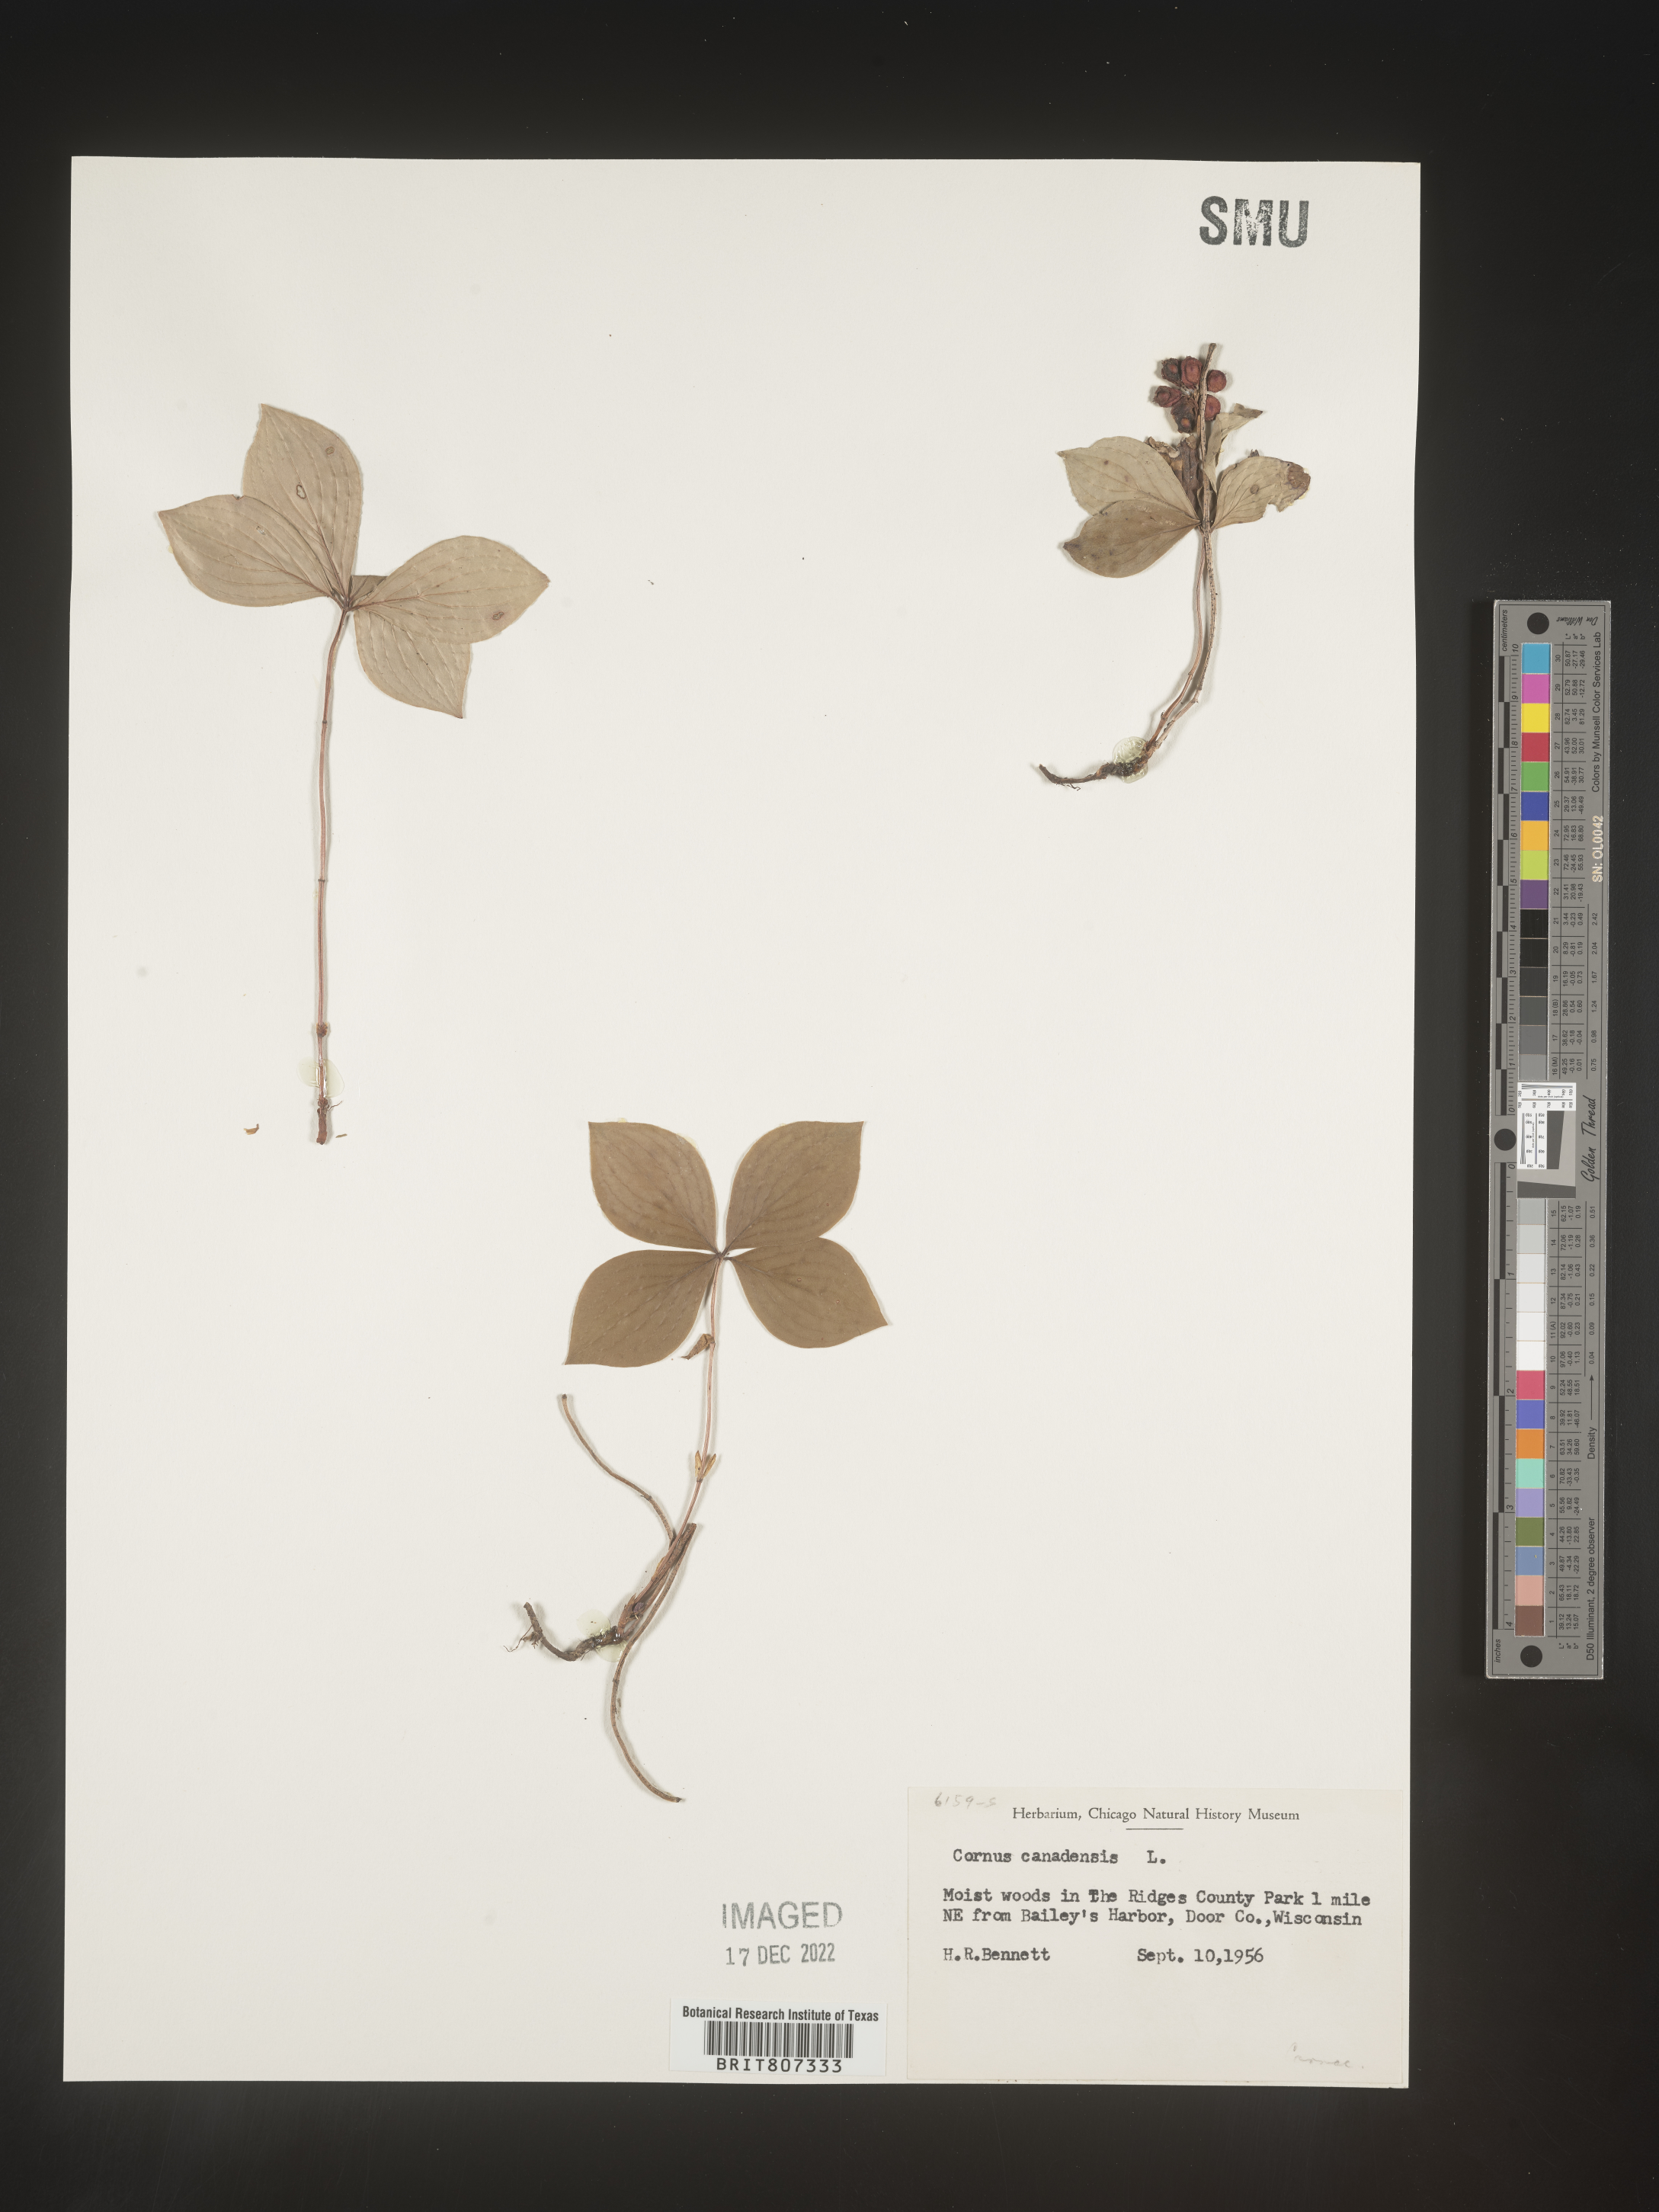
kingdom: Plantae
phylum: Tracheophyta
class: Magnoliopsida
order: Cornales
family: Cornaceae
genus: Cornus
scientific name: Cornus canadensis
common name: Creeping dogwood
